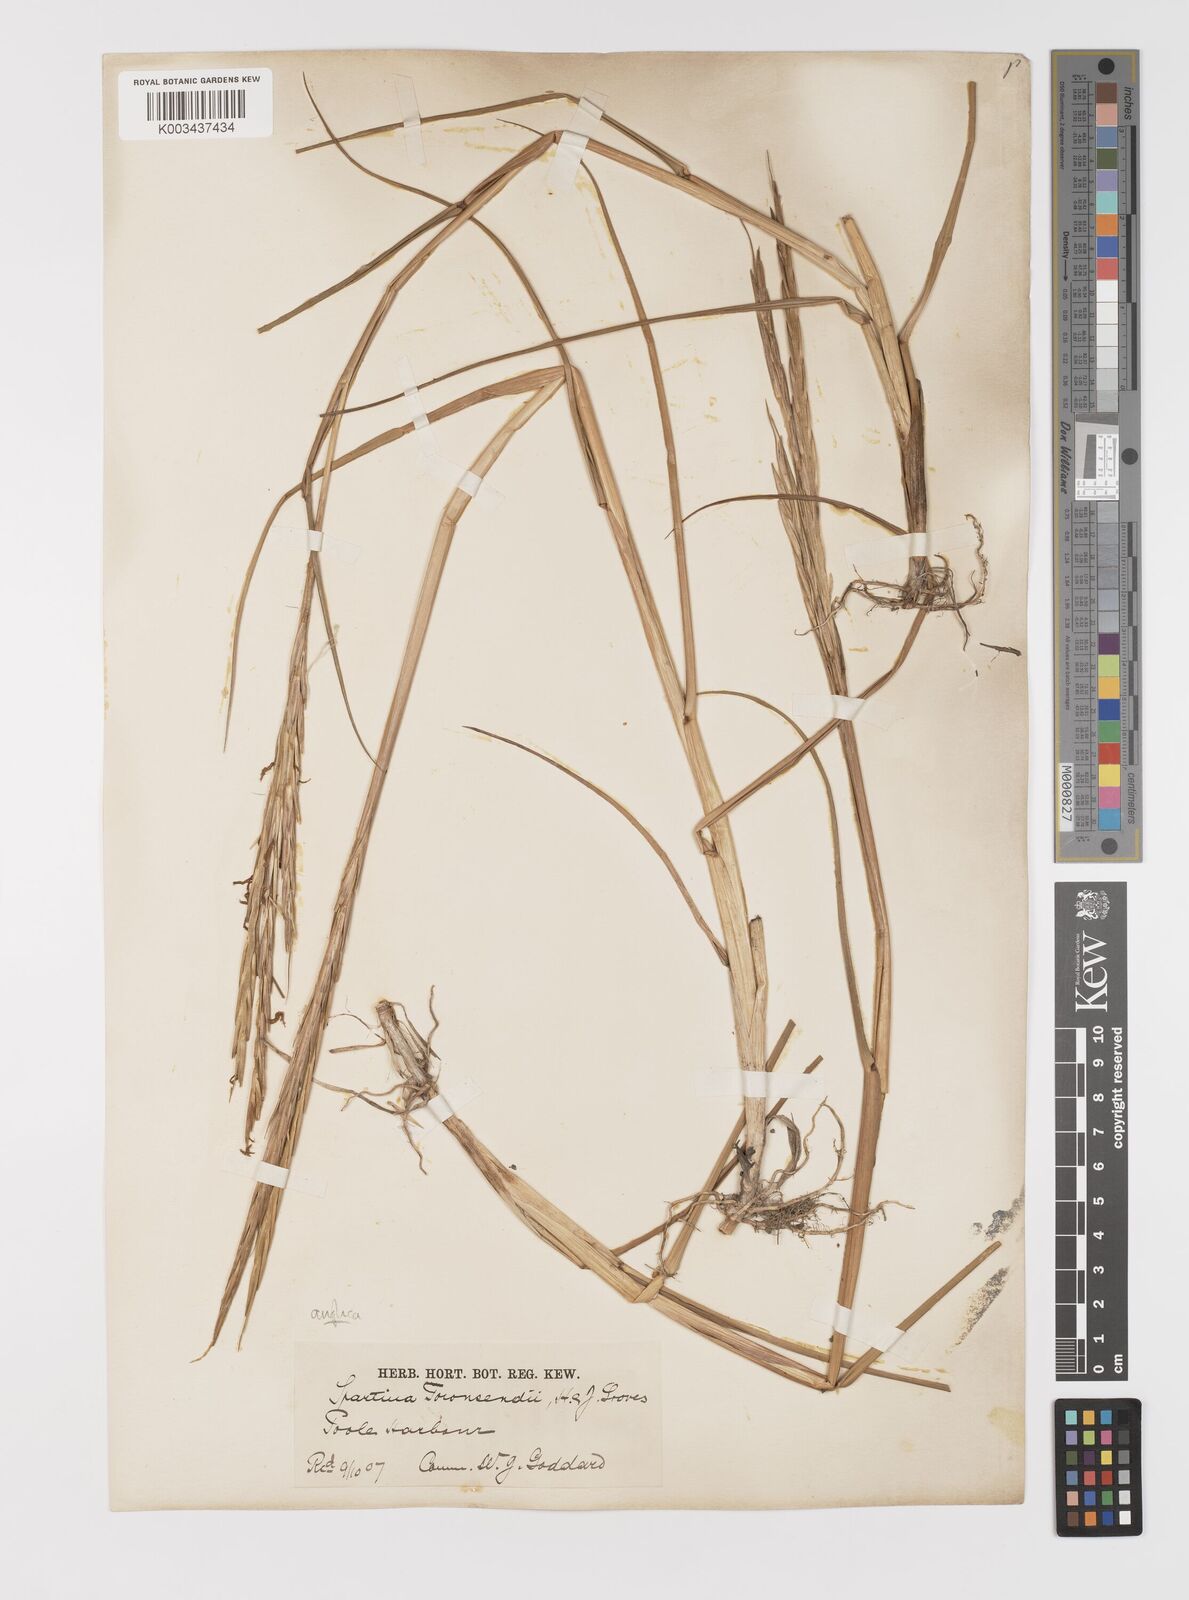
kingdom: Plantae
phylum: Tracheophyta
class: Liliopsida
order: Poales
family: Poaceae
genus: Sporobolus
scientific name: Sporobolus anglicus
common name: English cordgrass
